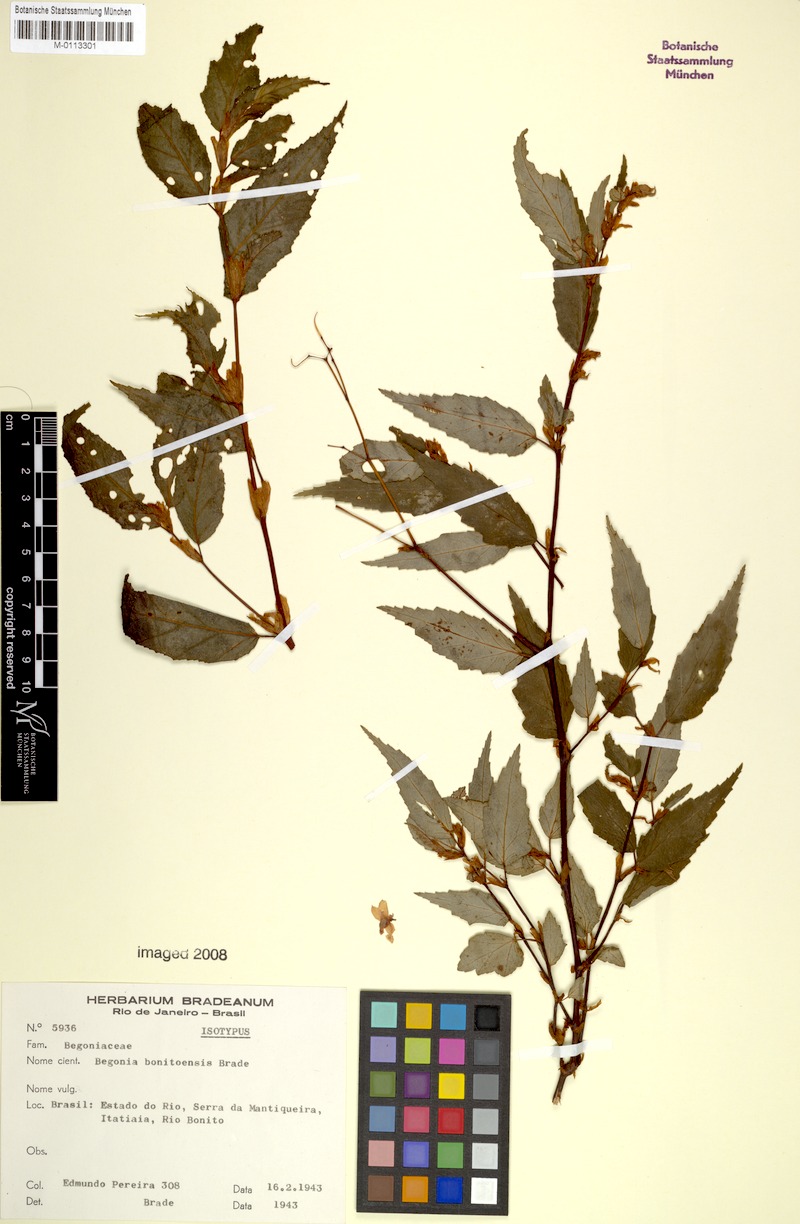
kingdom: Plantae
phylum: Tracheophyta
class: Magnoliopsida
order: Cucurbitales
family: Begoniaceae
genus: Begonia
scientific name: Begonia bonitoensis
